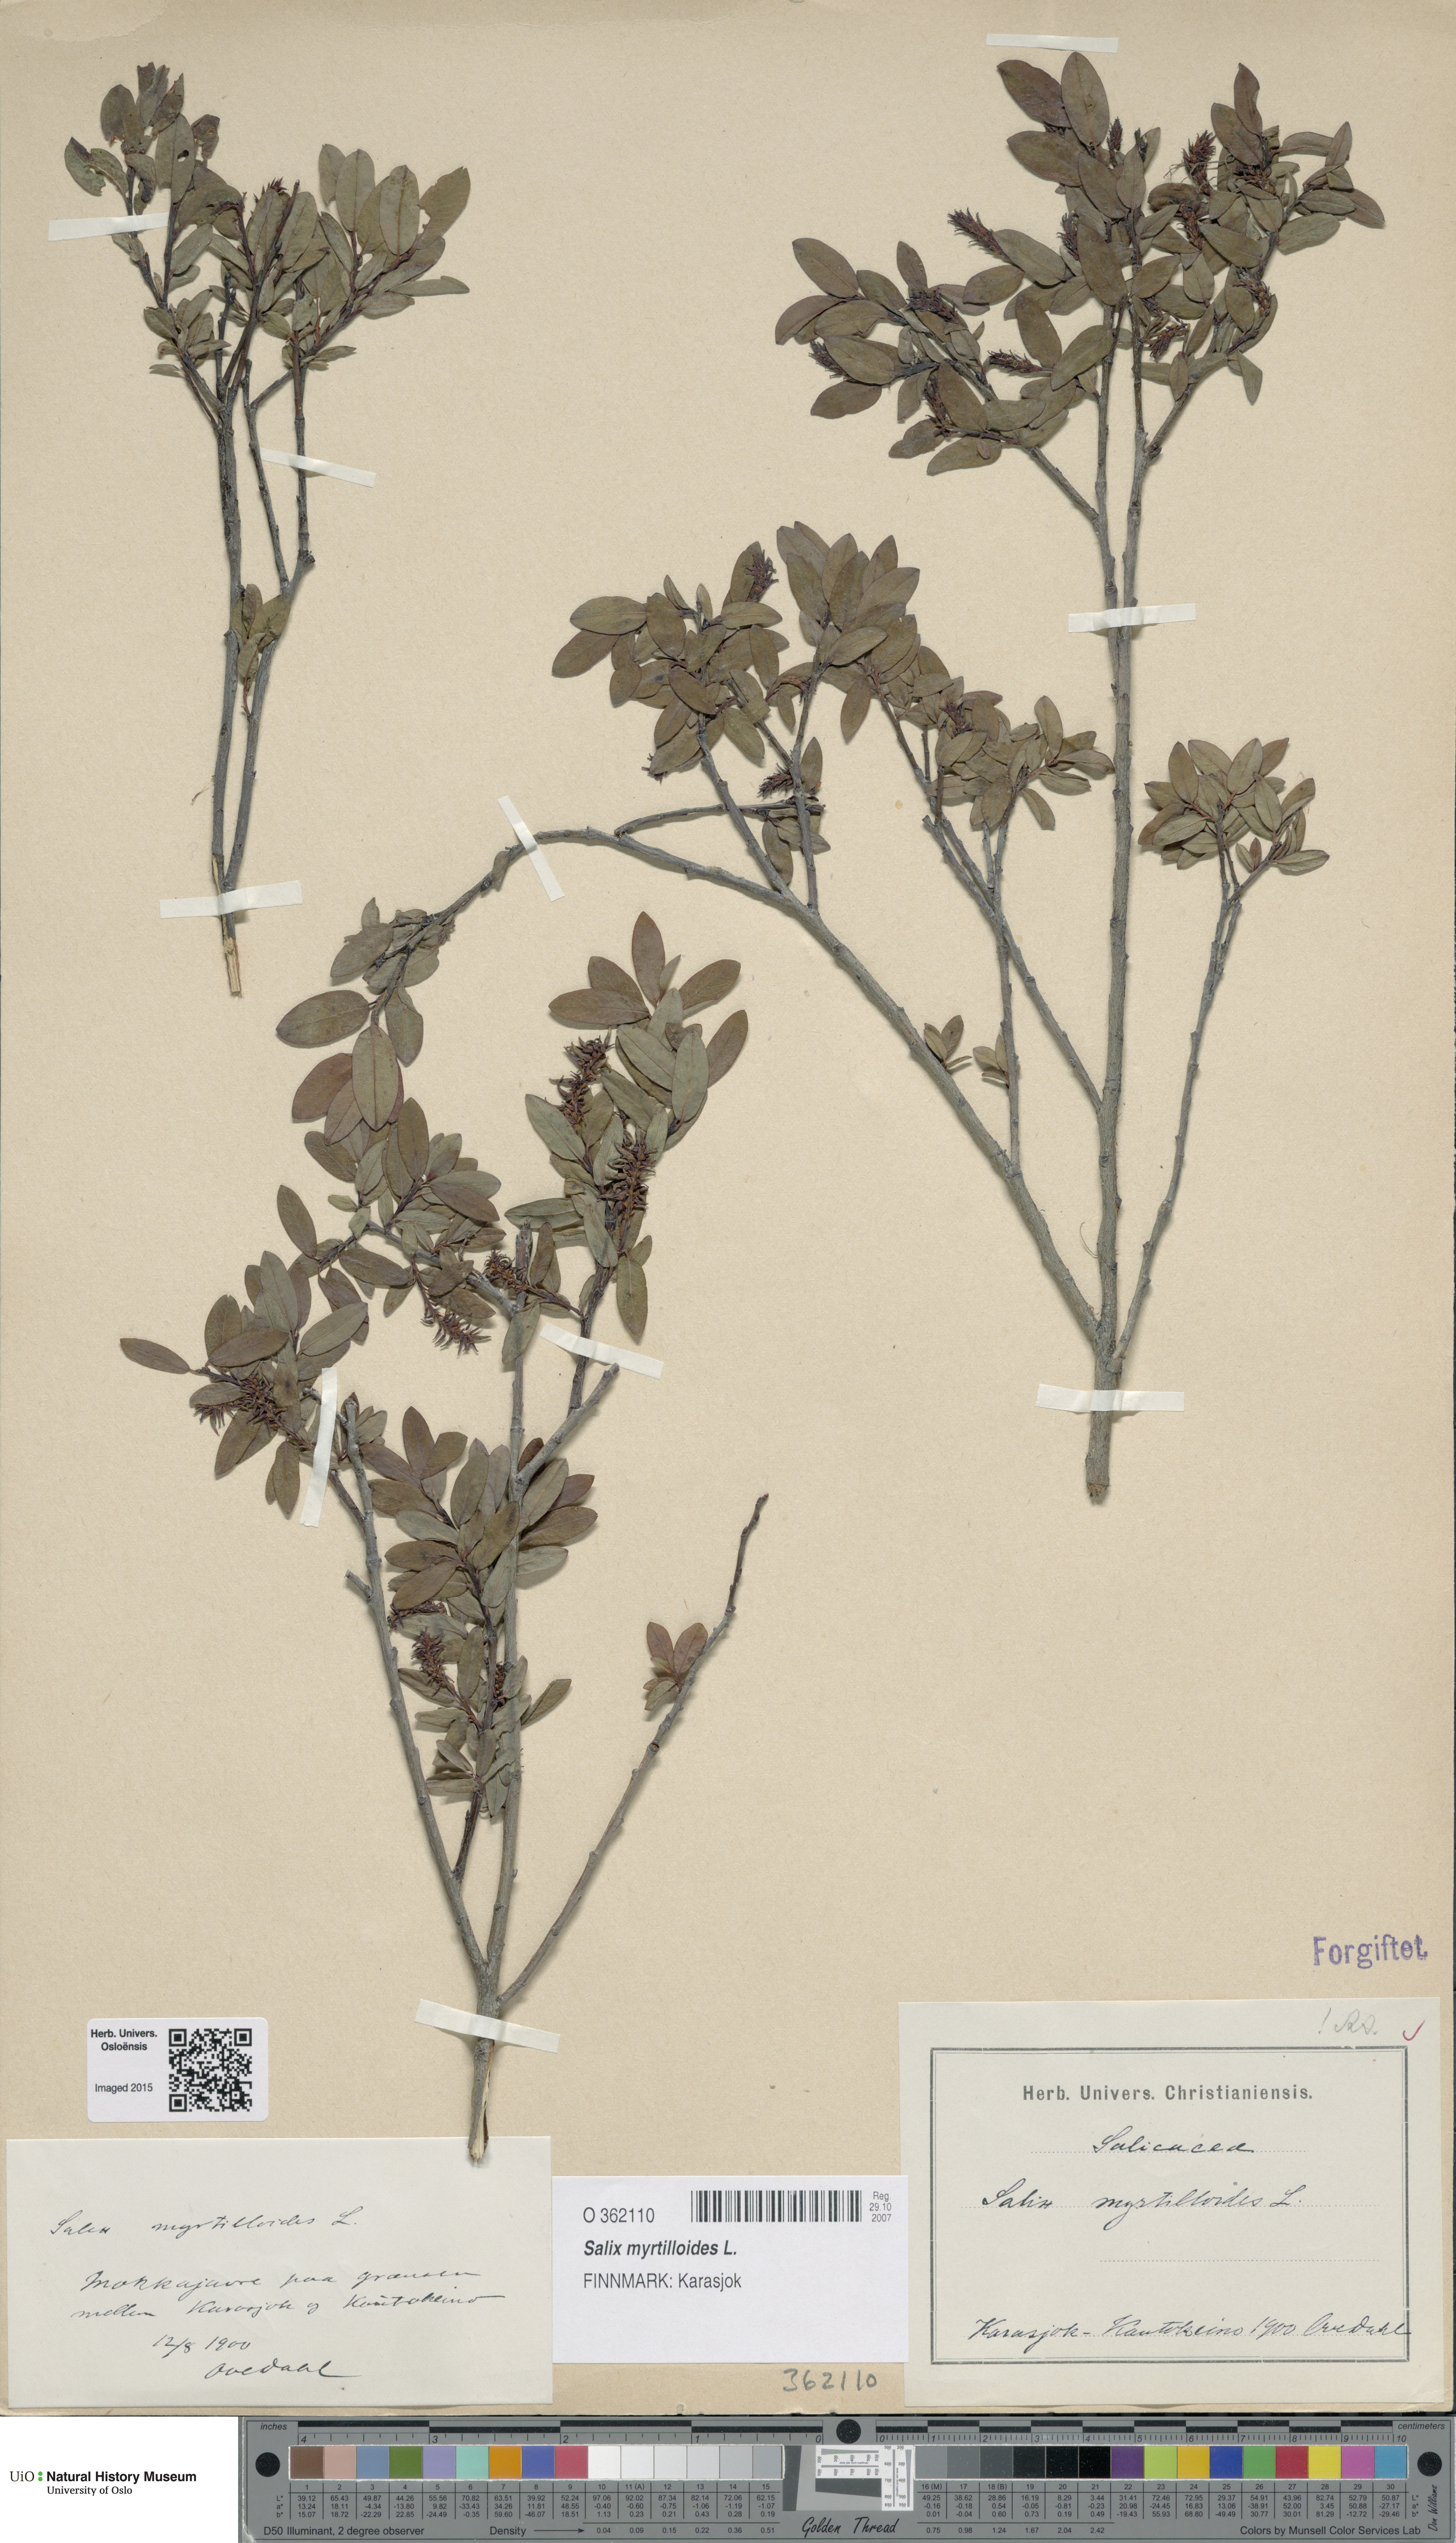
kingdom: Plantae
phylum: Tracheophyta
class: Magnoliopsida
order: Malpighiales
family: Salicaceae
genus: Salix
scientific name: Salix myrtilloides
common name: Myrtle-leaved willow
